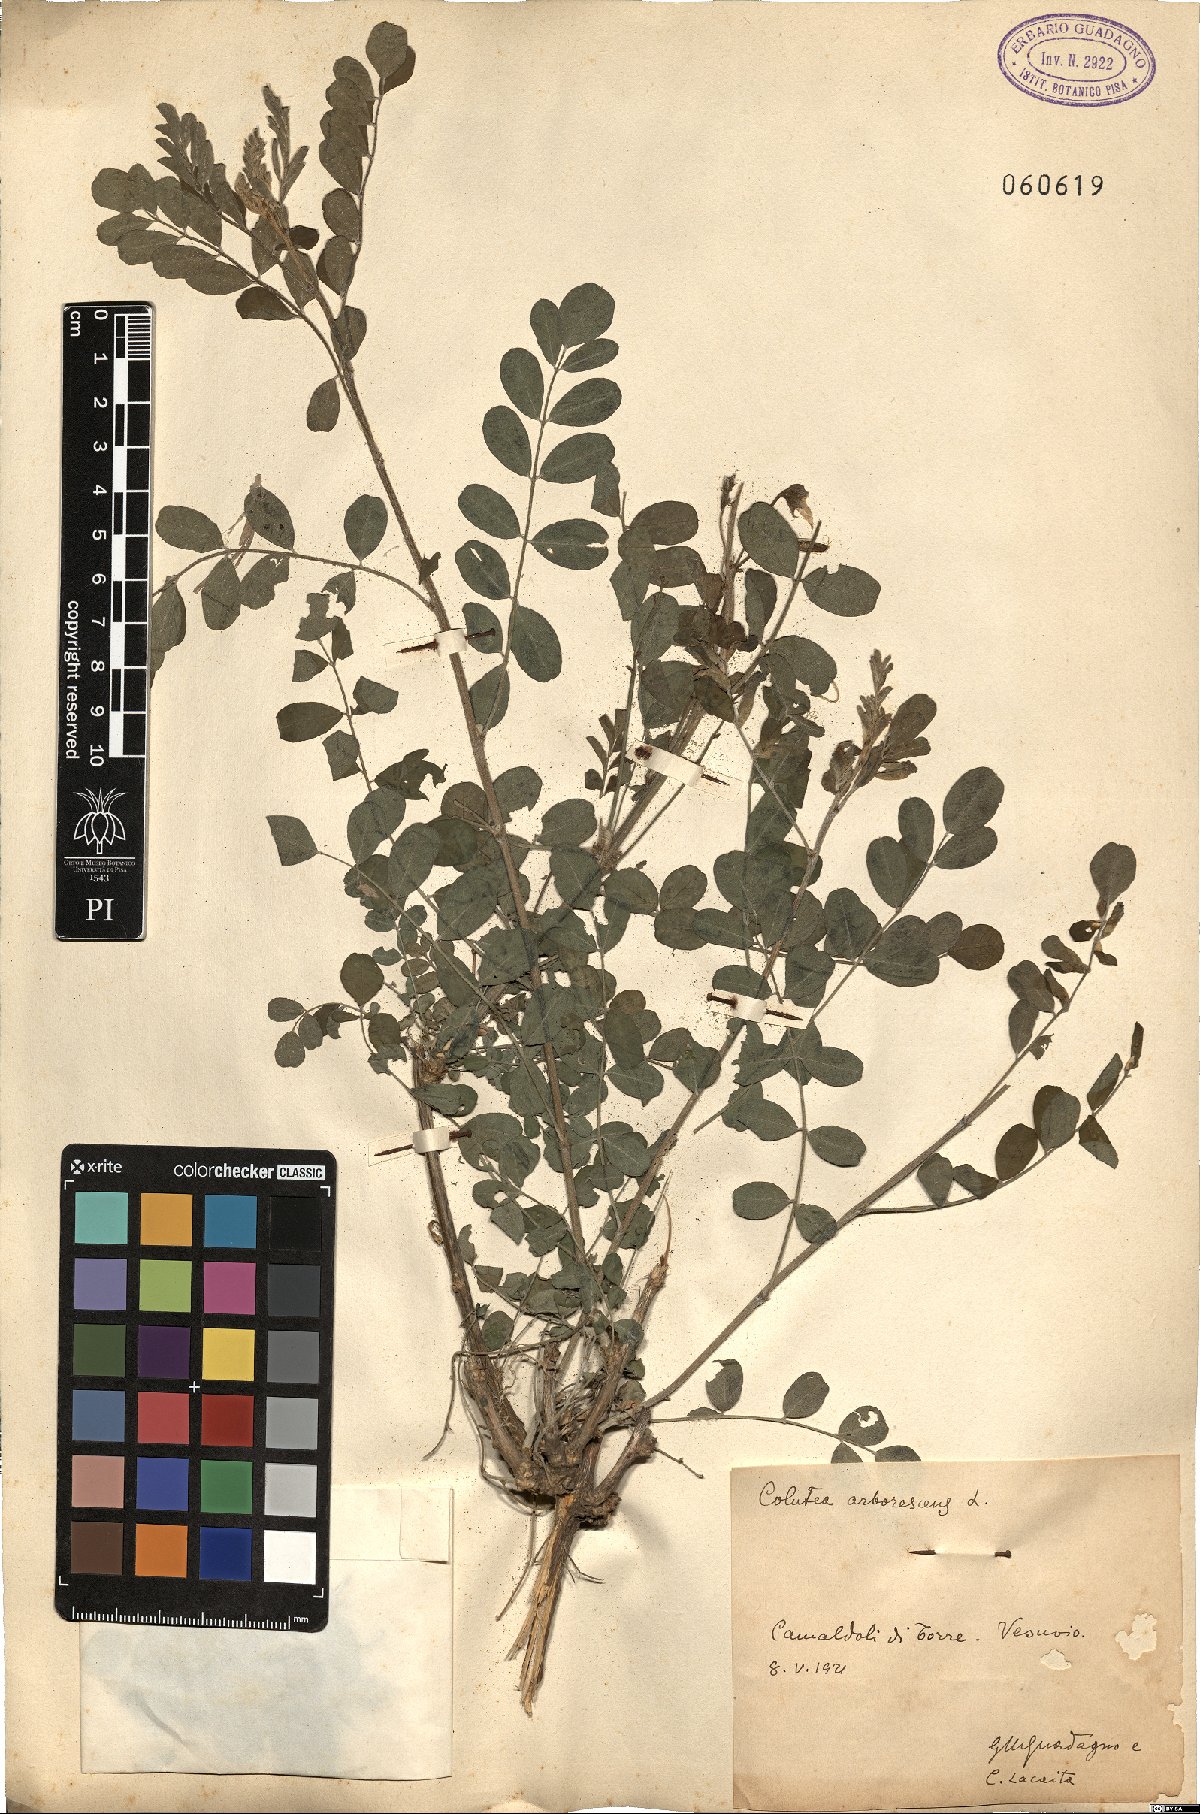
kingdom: Plantae
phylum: Tracheophyta
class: Magnoliopsida
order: Fabales
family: Fabaceae
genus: Colutea
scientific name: Colutea arborescens
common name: Bladder-senna
